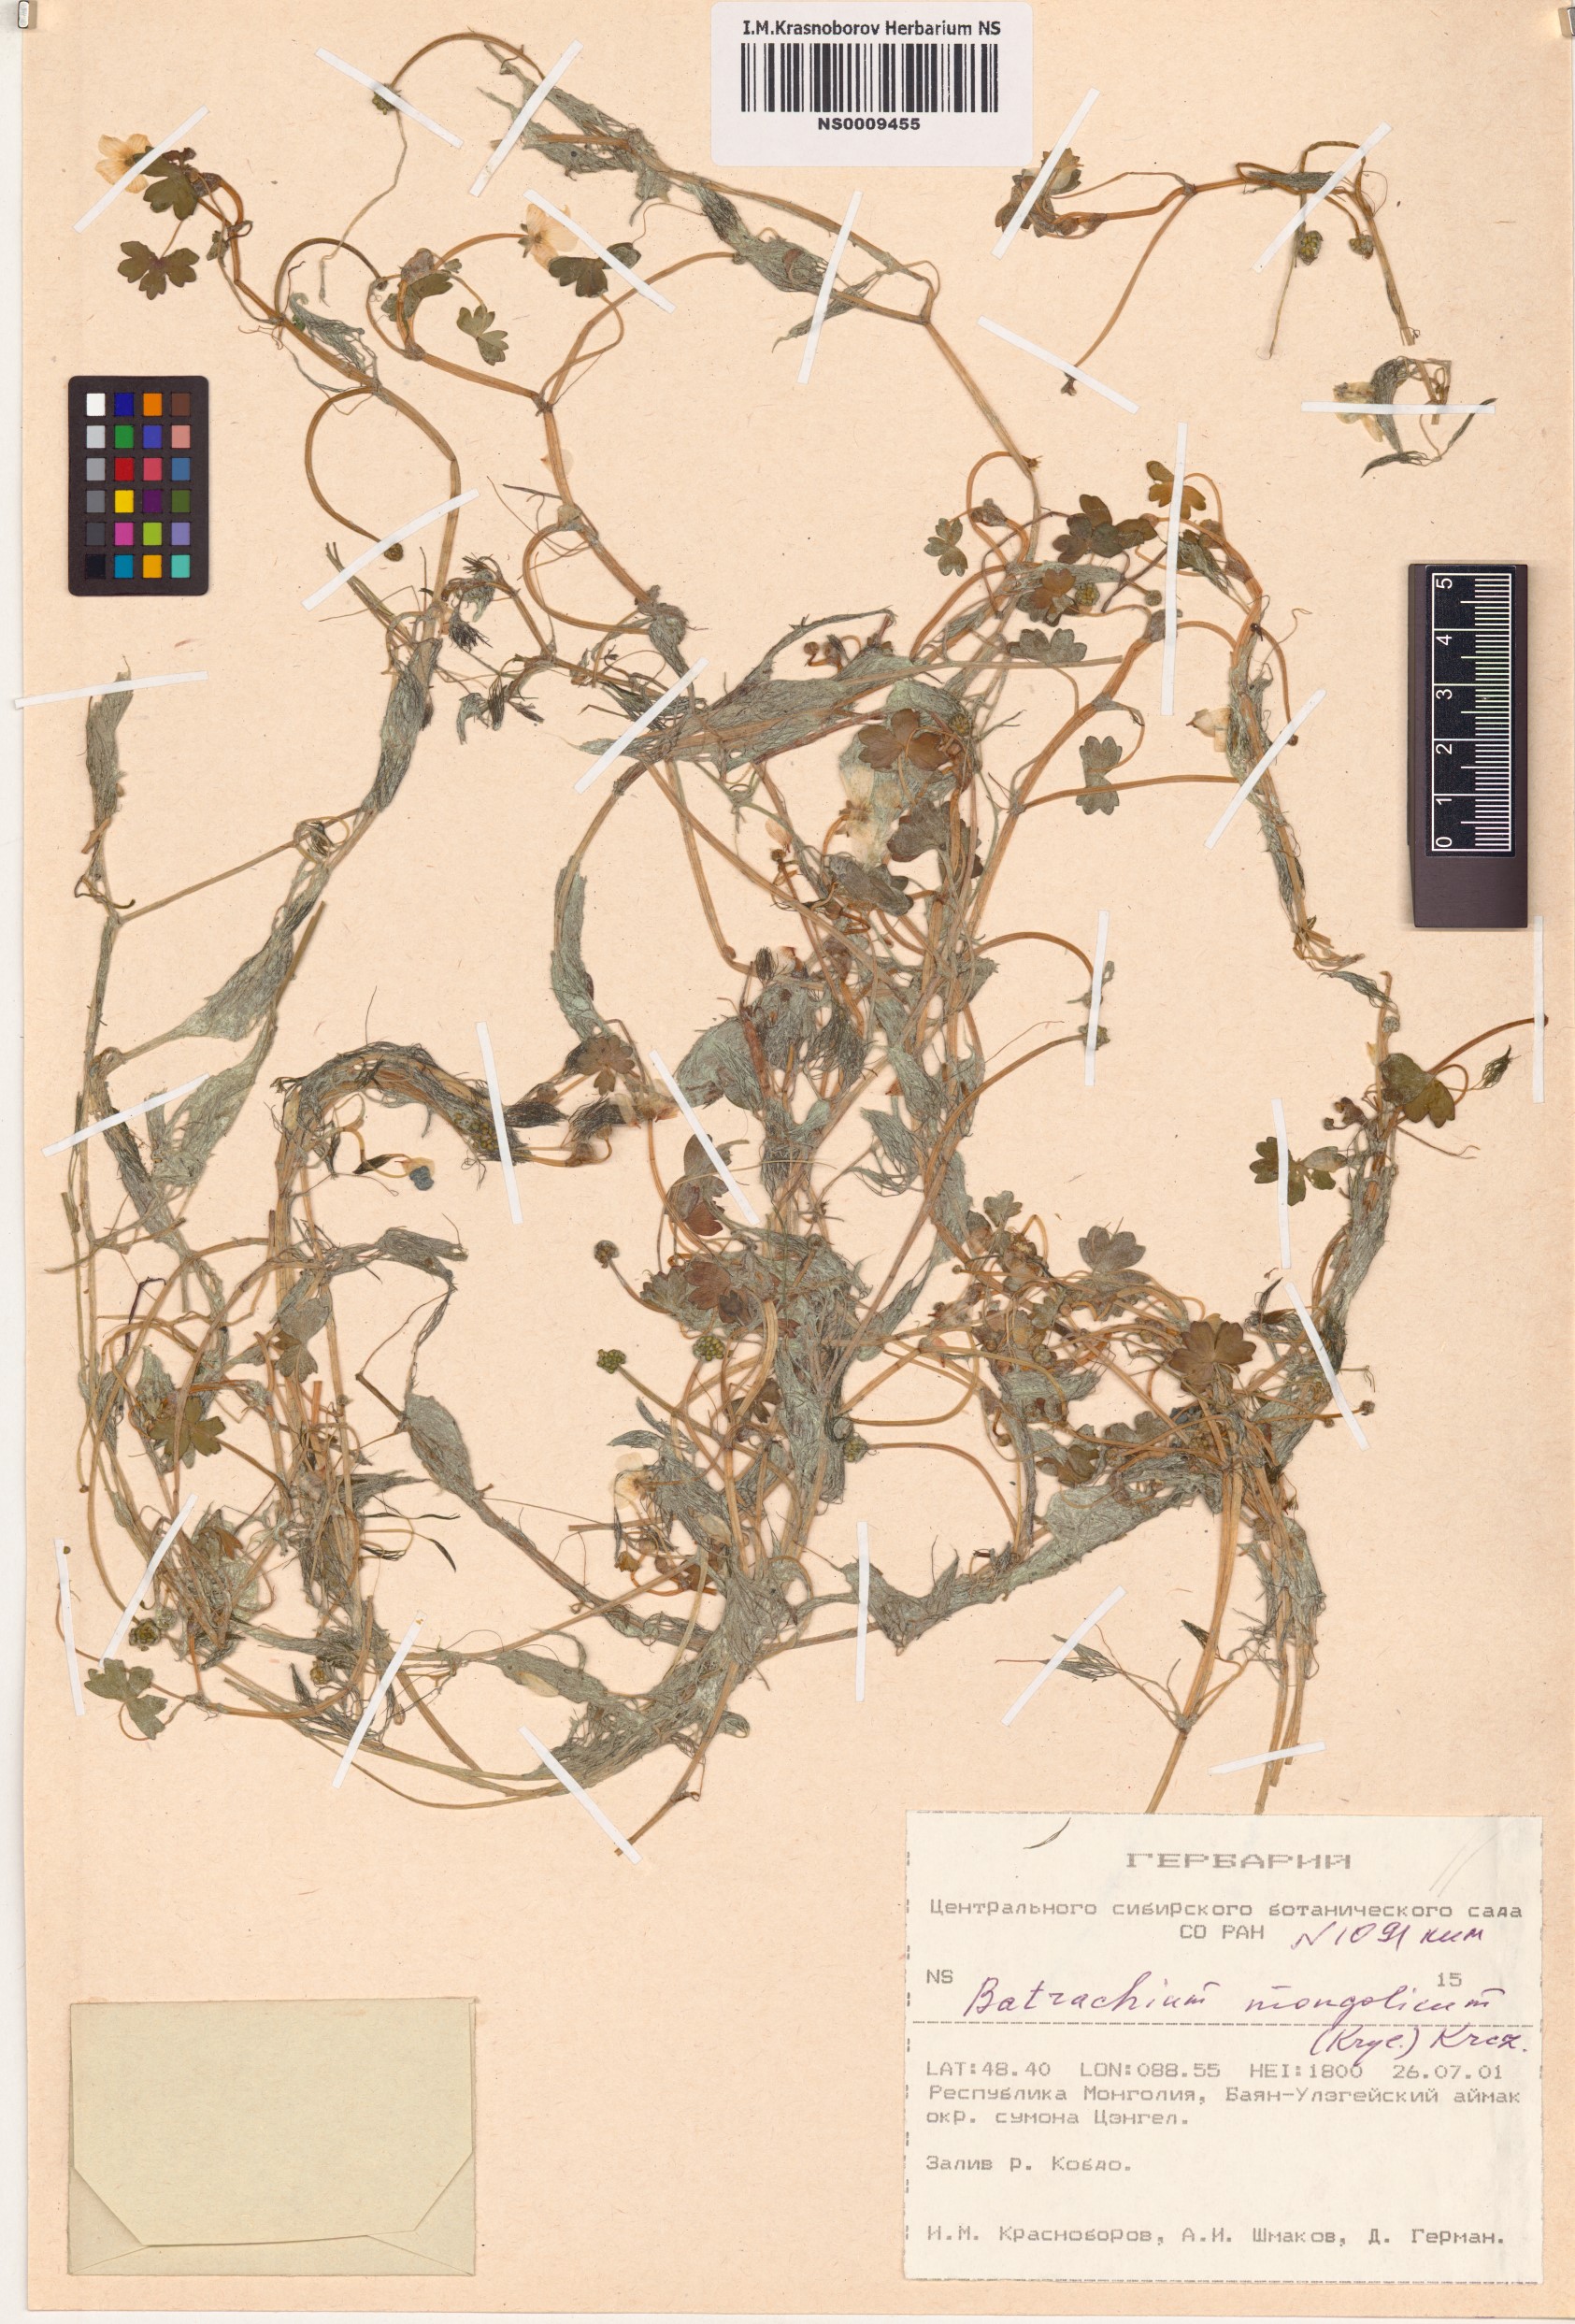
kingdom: Plantae
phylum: Tracheophyta
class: Magnoliopsida
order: Ranunculales
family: Ranunculaceae
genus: Ranunculus
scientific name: Ranunculus mongolicus
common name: Mongolia buttercup
